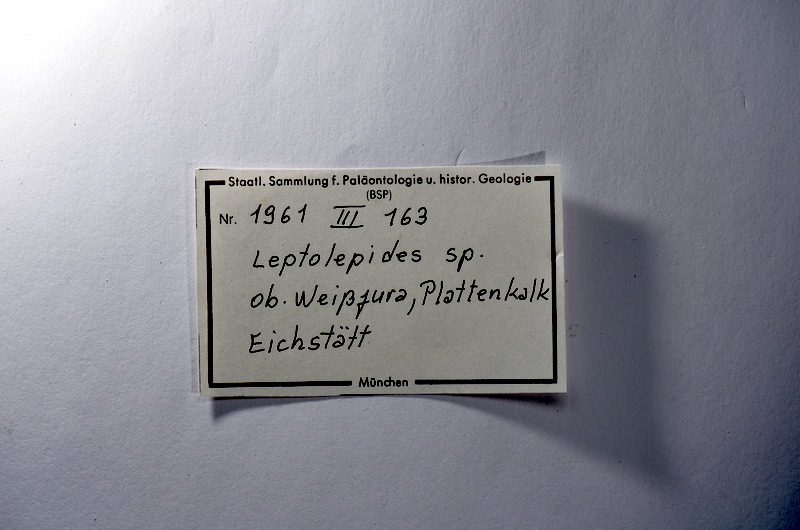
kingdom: Animalia
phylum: Chordata
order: Salmoniformes
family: Orthogonikleithridae
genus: Leptolepides
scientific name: Leptolepides
